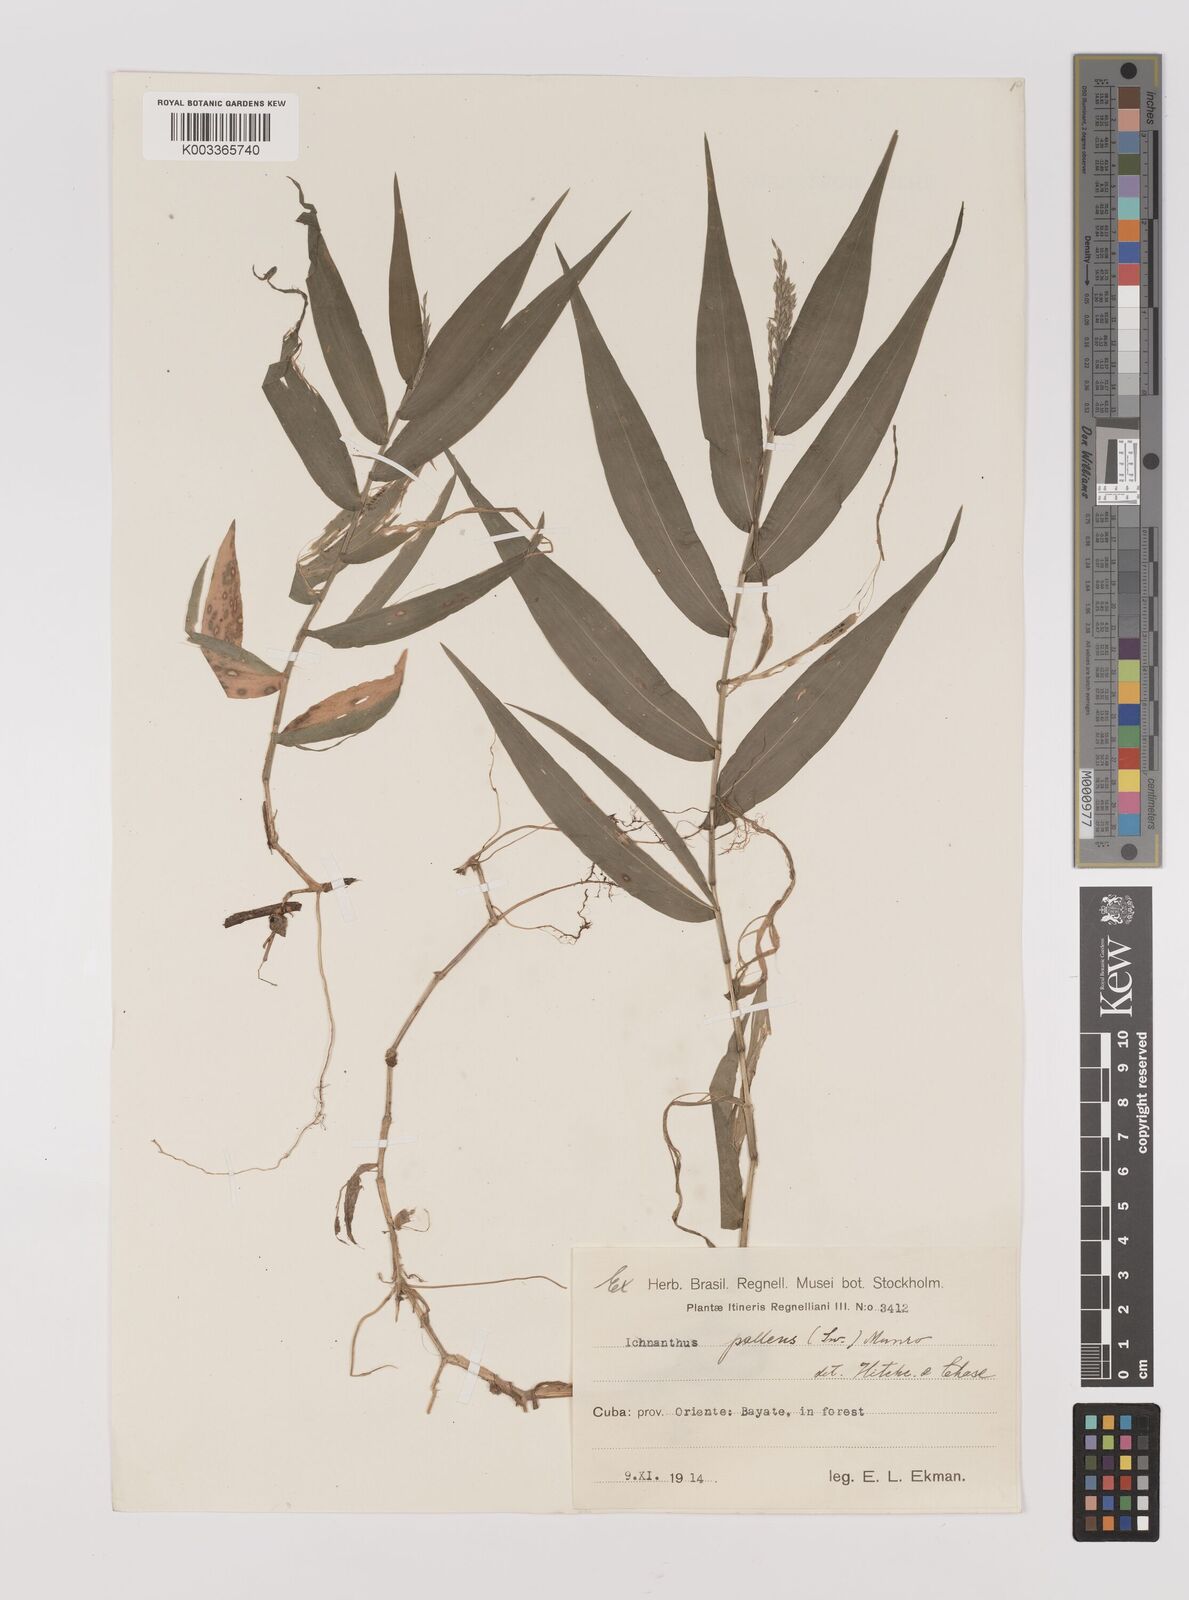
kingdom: Plantae
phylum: Tracheophyta
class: Liliopsida
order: Poales
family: Poaceae
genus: Ichnanthus
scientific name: Ichnanthus pallens
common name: Water grass
